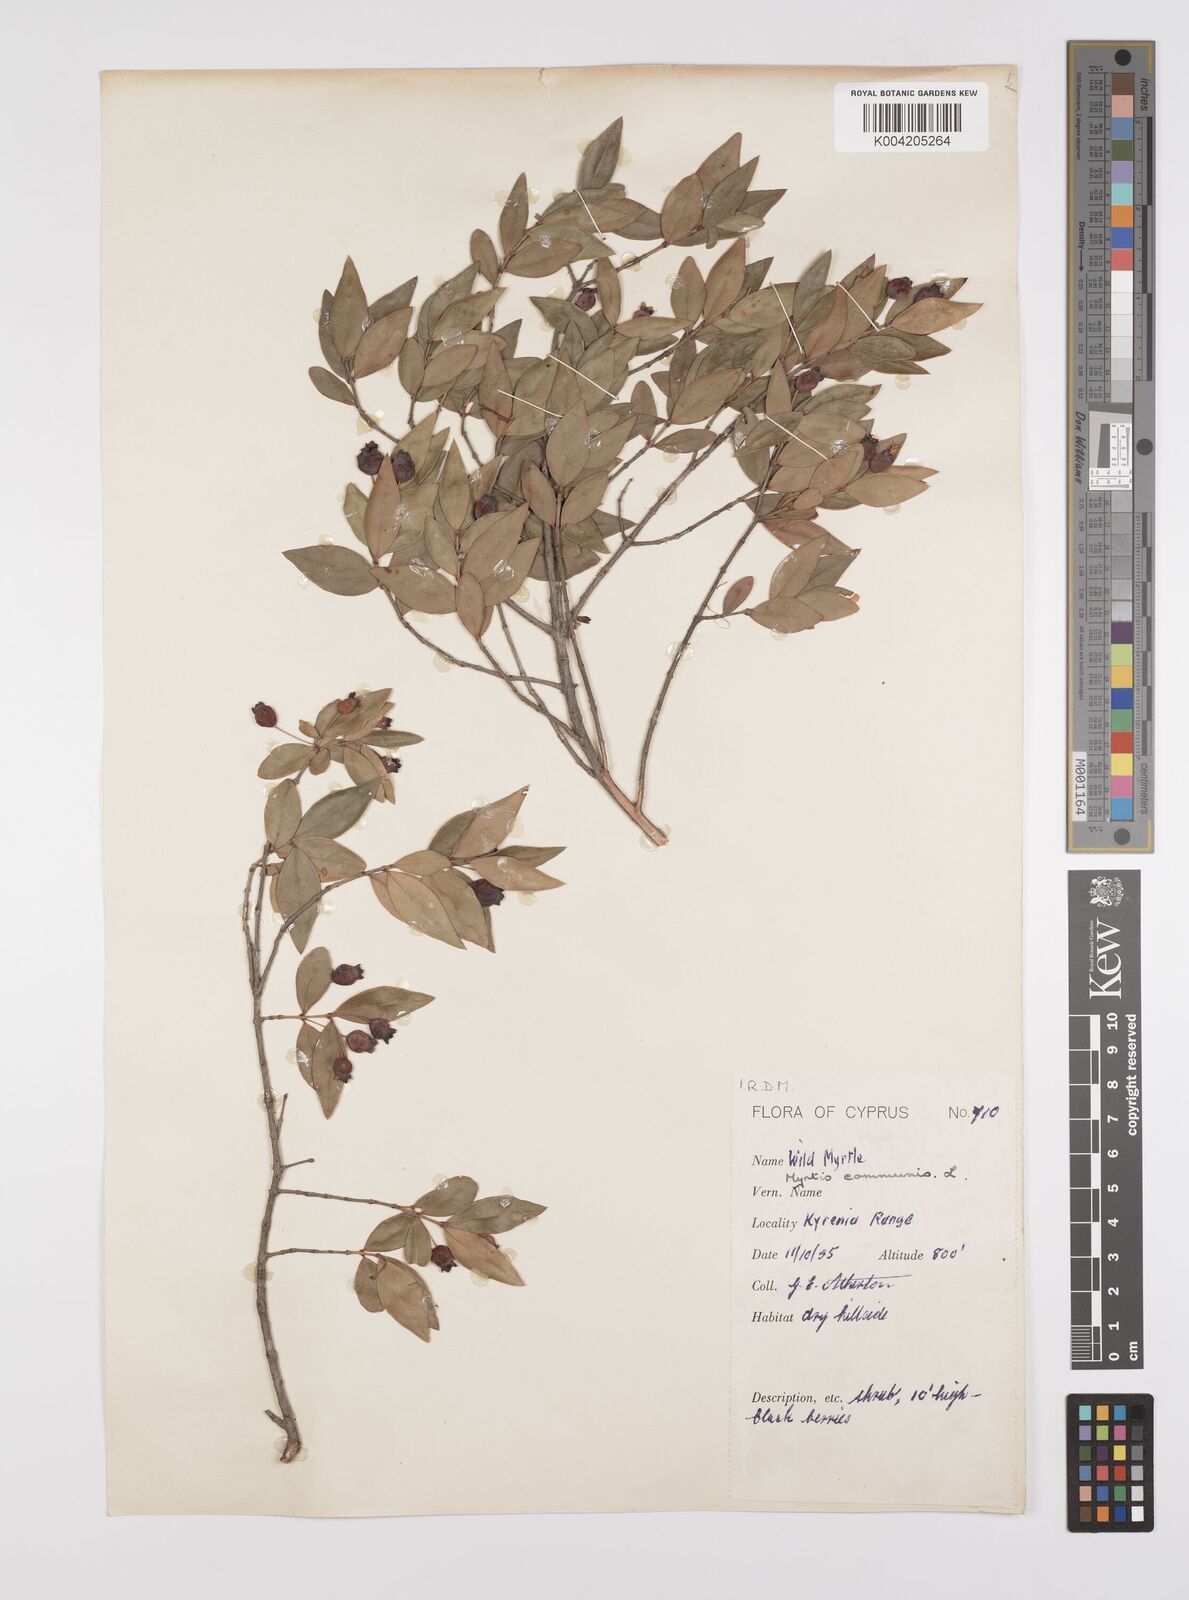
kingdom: Plantae
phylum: Tracheophyta
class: Magnoliopsida
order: Myrtales
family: Myrtaceae
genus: Myrtus
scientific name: Myrtus communis
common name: Myrtle
